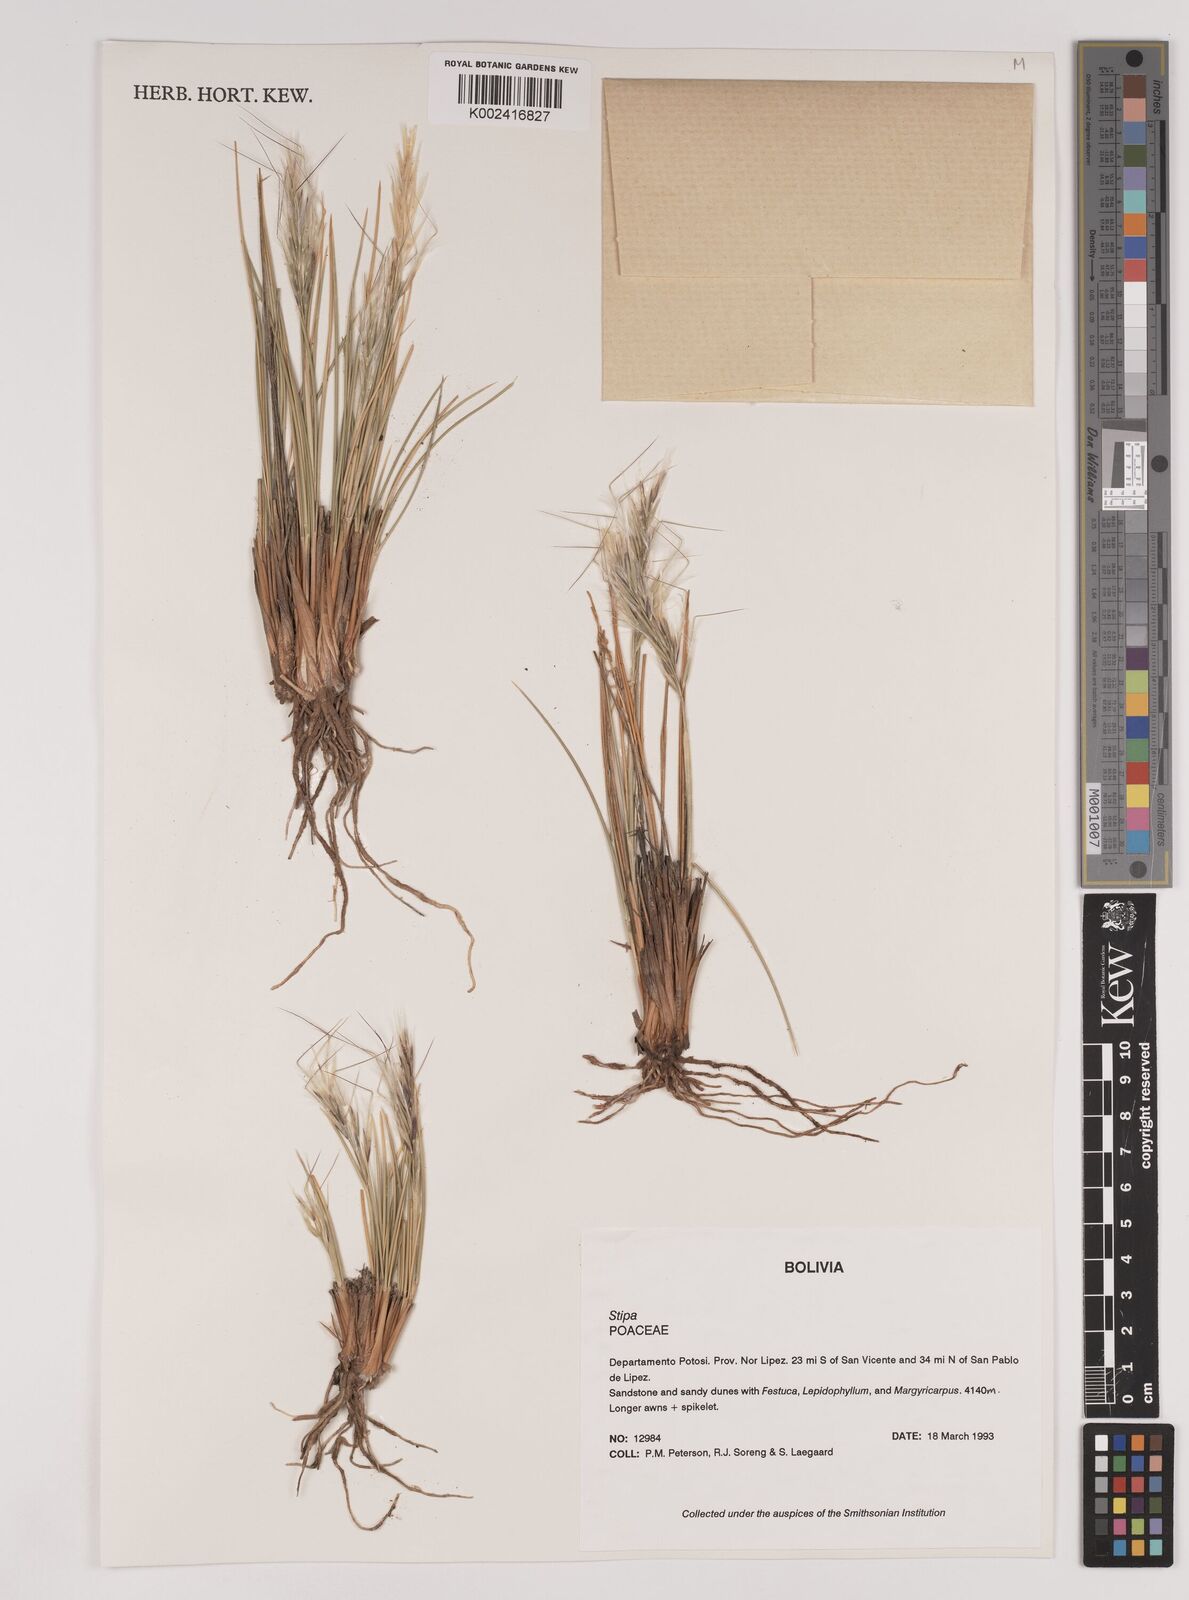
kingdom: Plantae
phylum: Tracheophyta
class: Liliopsida
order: Poales
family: Poaceae
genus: Pappostipa
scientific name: Pappostipa vaginata
